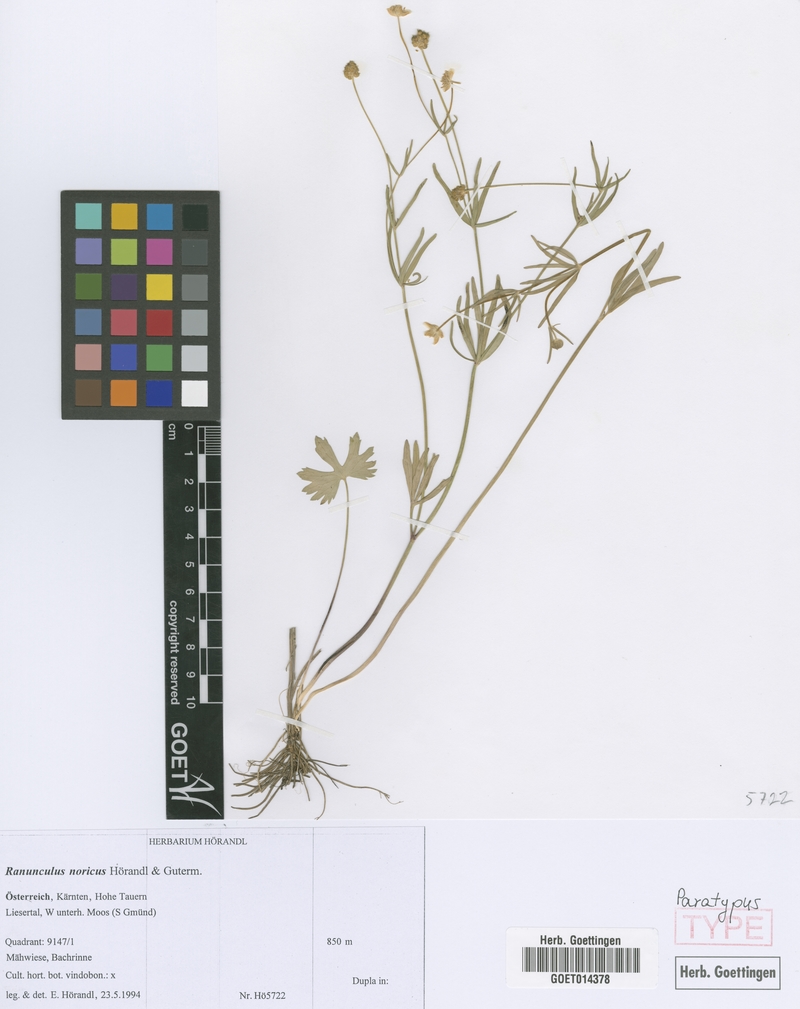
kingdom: Plantae
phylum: Tracheophyta
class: Magnoliopsida
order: Ranunculales
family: Ranunculaceae
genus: Ranunculus
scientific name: Ranunculus noricus
